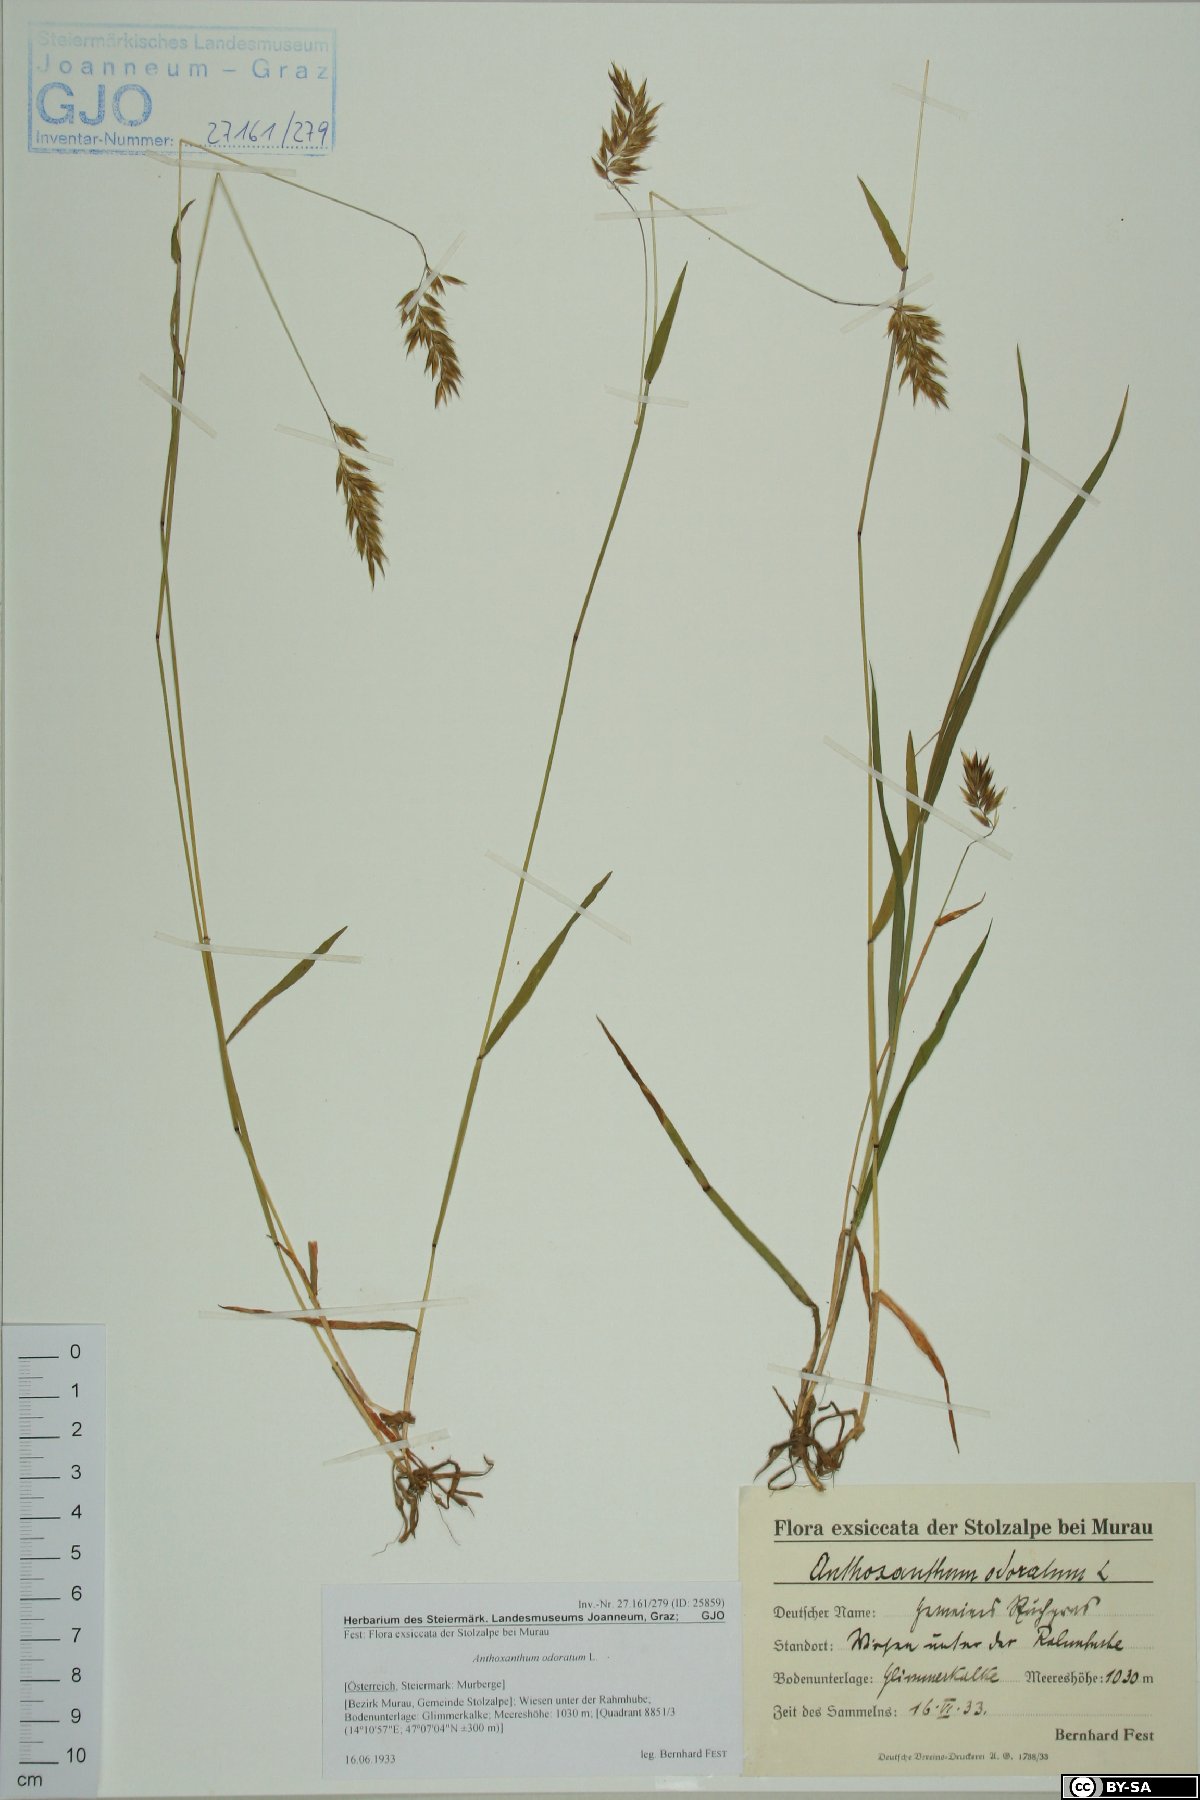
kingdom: Plantae
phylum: Tracheophyta
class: Liliopsida
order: Poales
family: Poaceae
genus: Anthoxanthum
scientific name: Anthoxanthum odoratum
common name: Sweet vernalgrass
